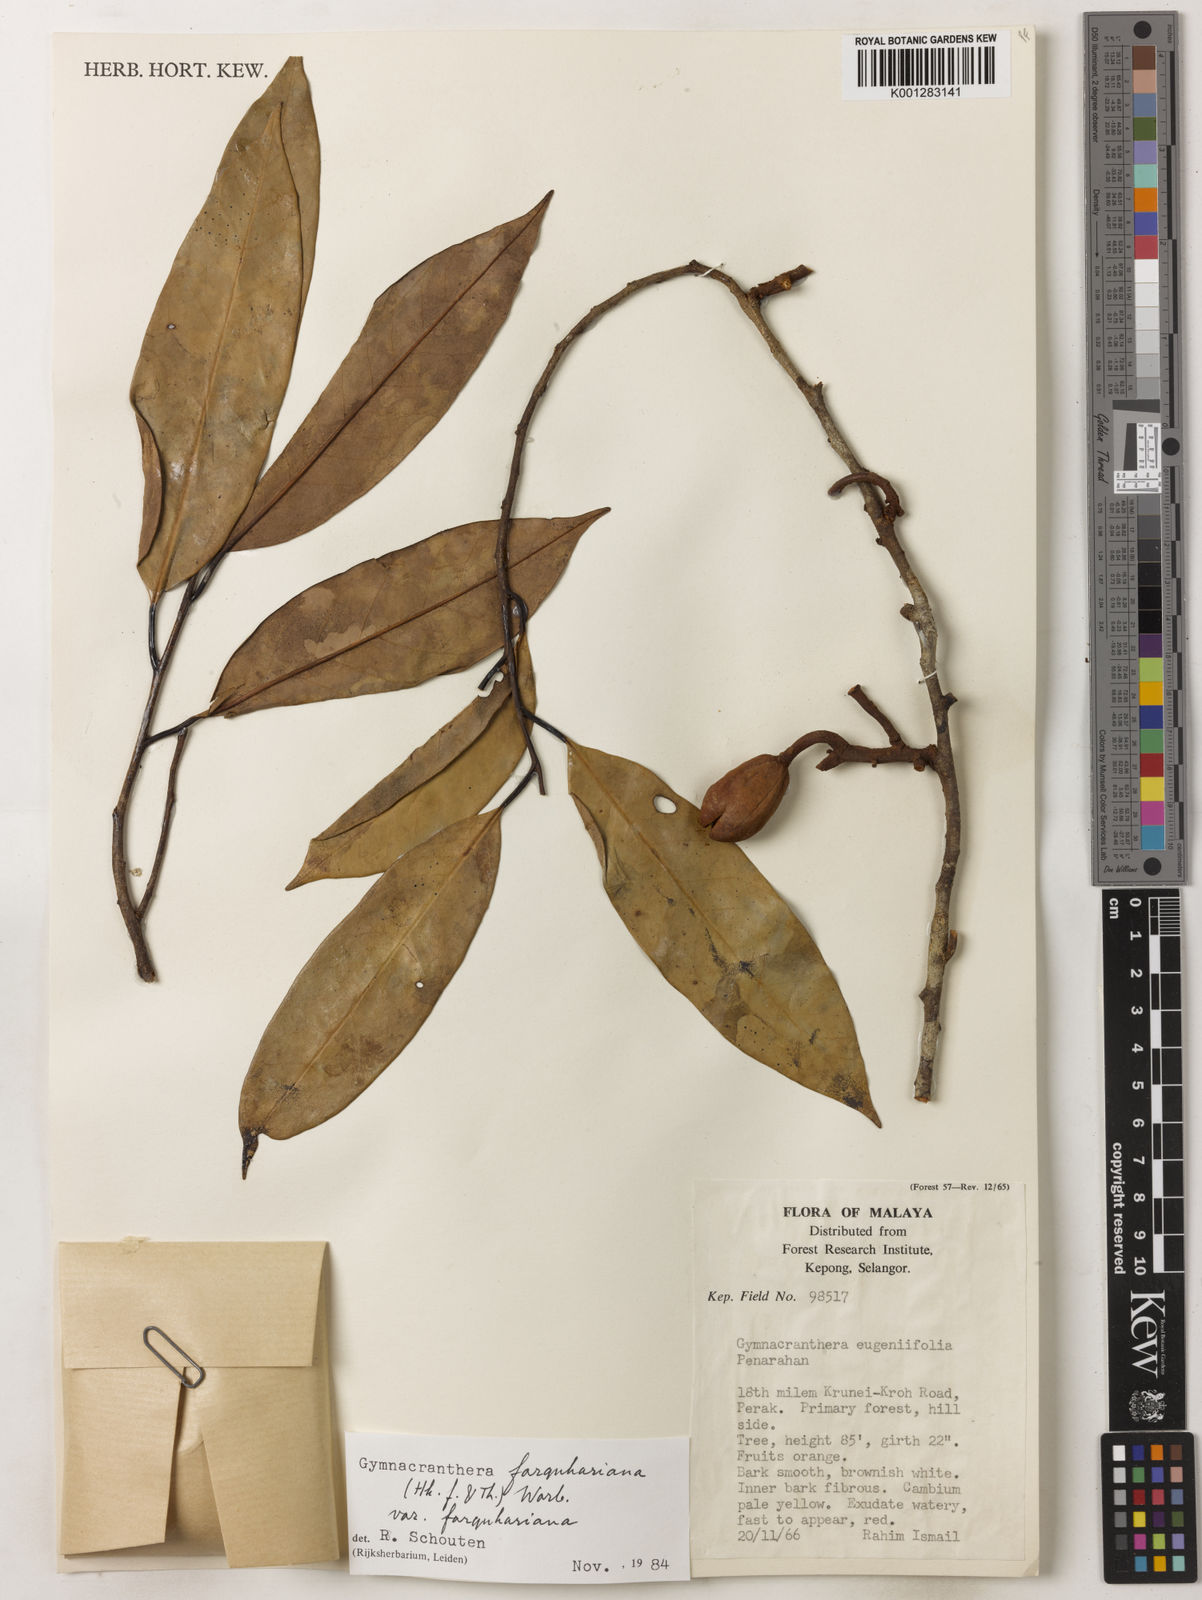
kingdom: Plantae
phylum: Tracheophyta
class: Magnoliopsida
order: Magnoliales
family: Myristicaceae
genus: Gymnacranthera
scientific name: Gymnacranthera farquhariana
